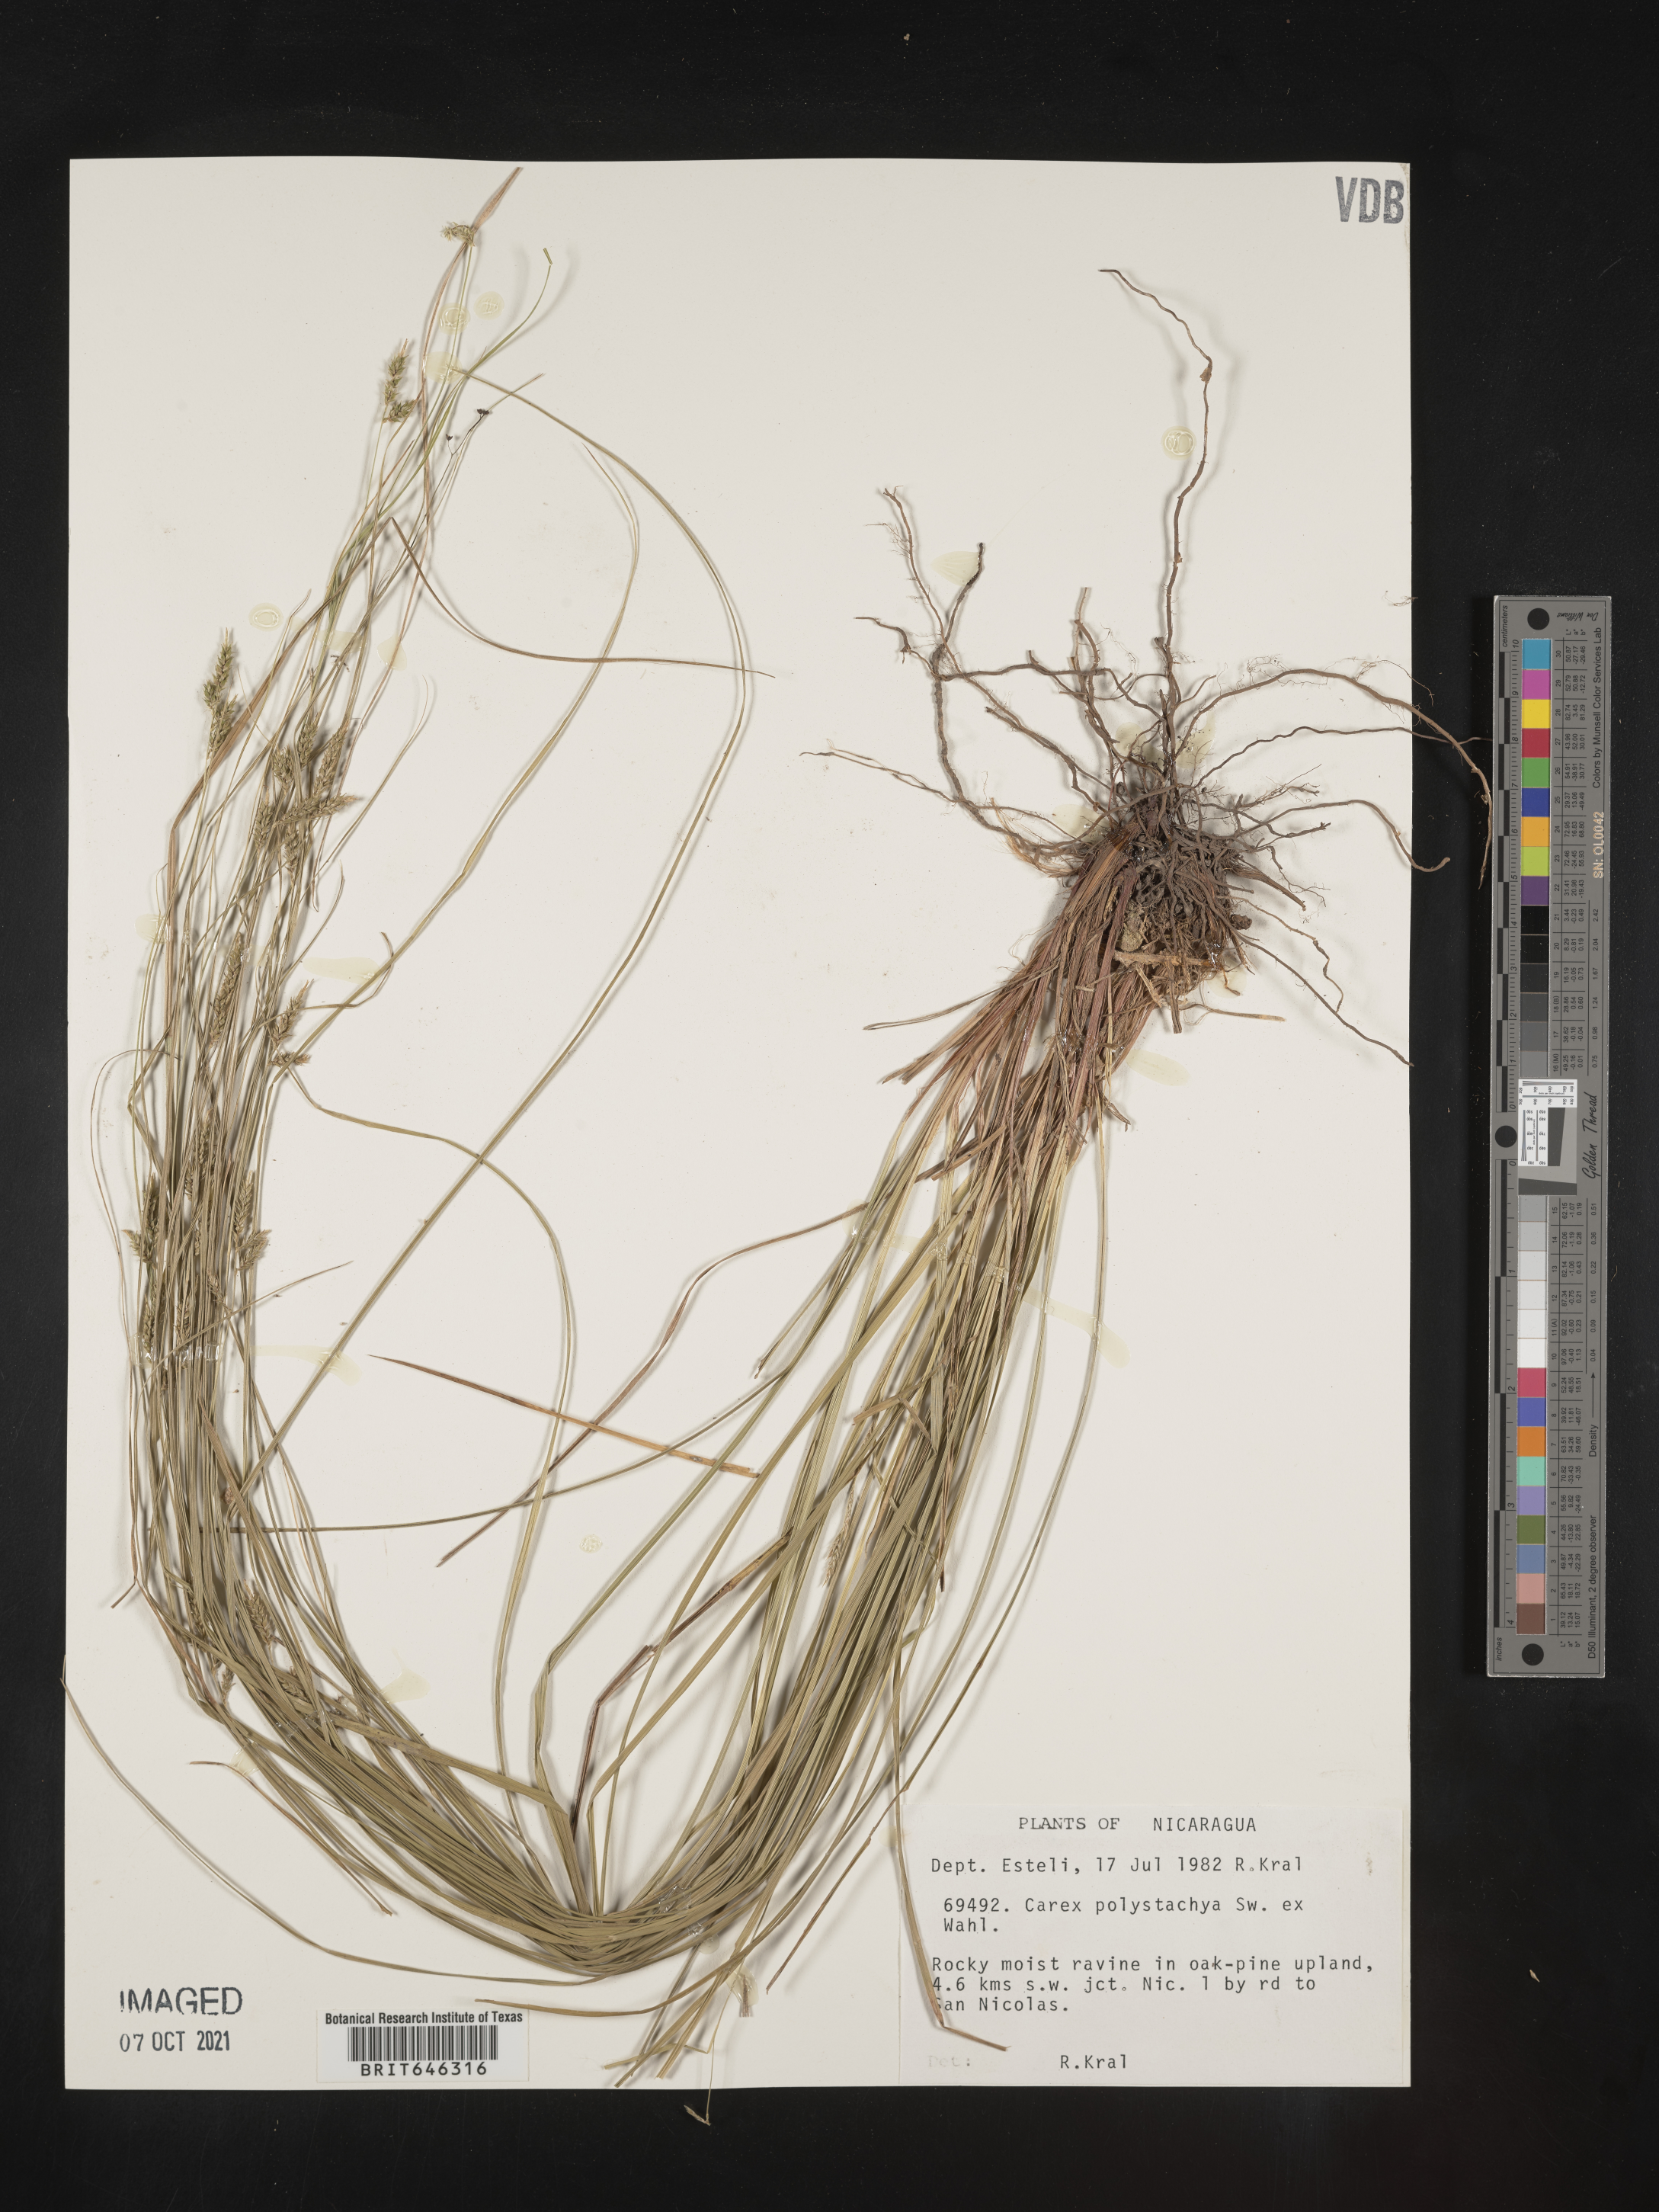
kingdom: Plantae
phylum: Tracheophyta
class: Liliopsida
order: Poales
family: Cyperaceae
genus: Carex
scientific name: Carex polystachya
